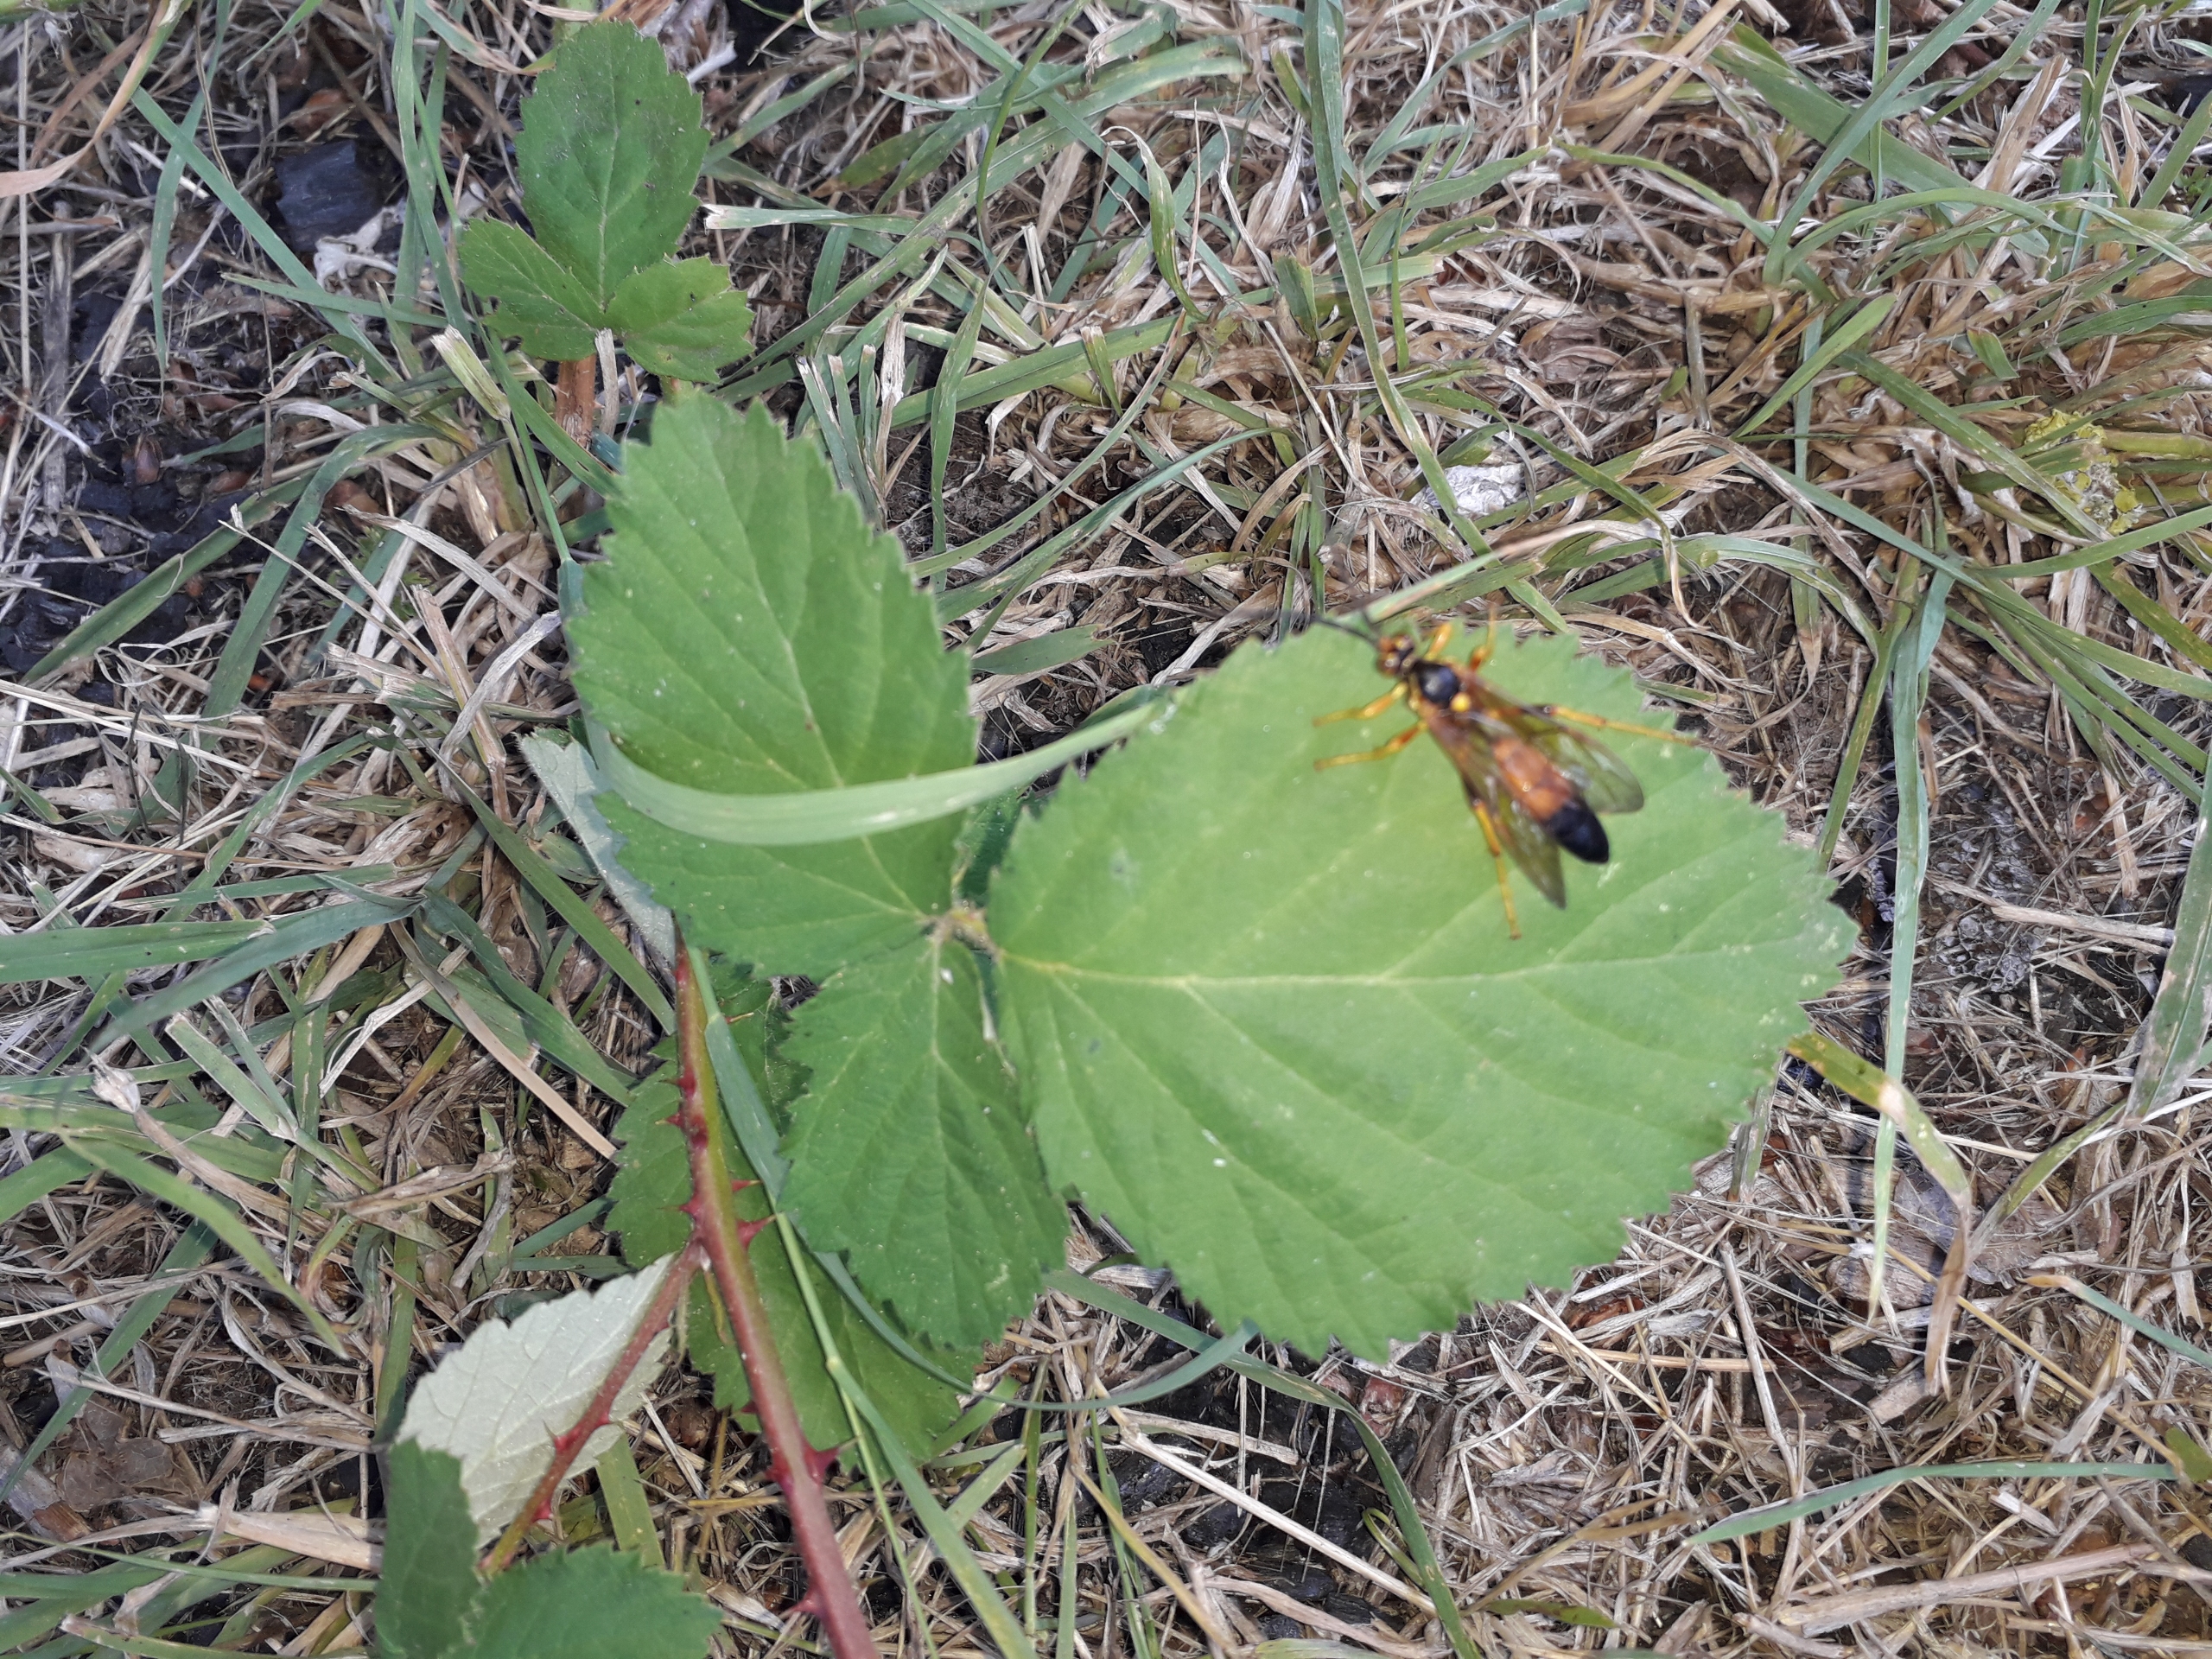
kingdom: Animalia
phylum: Arthropoda
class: Insecta
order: Hymenoptera
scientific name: Hymenoptera
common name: Årevinger
